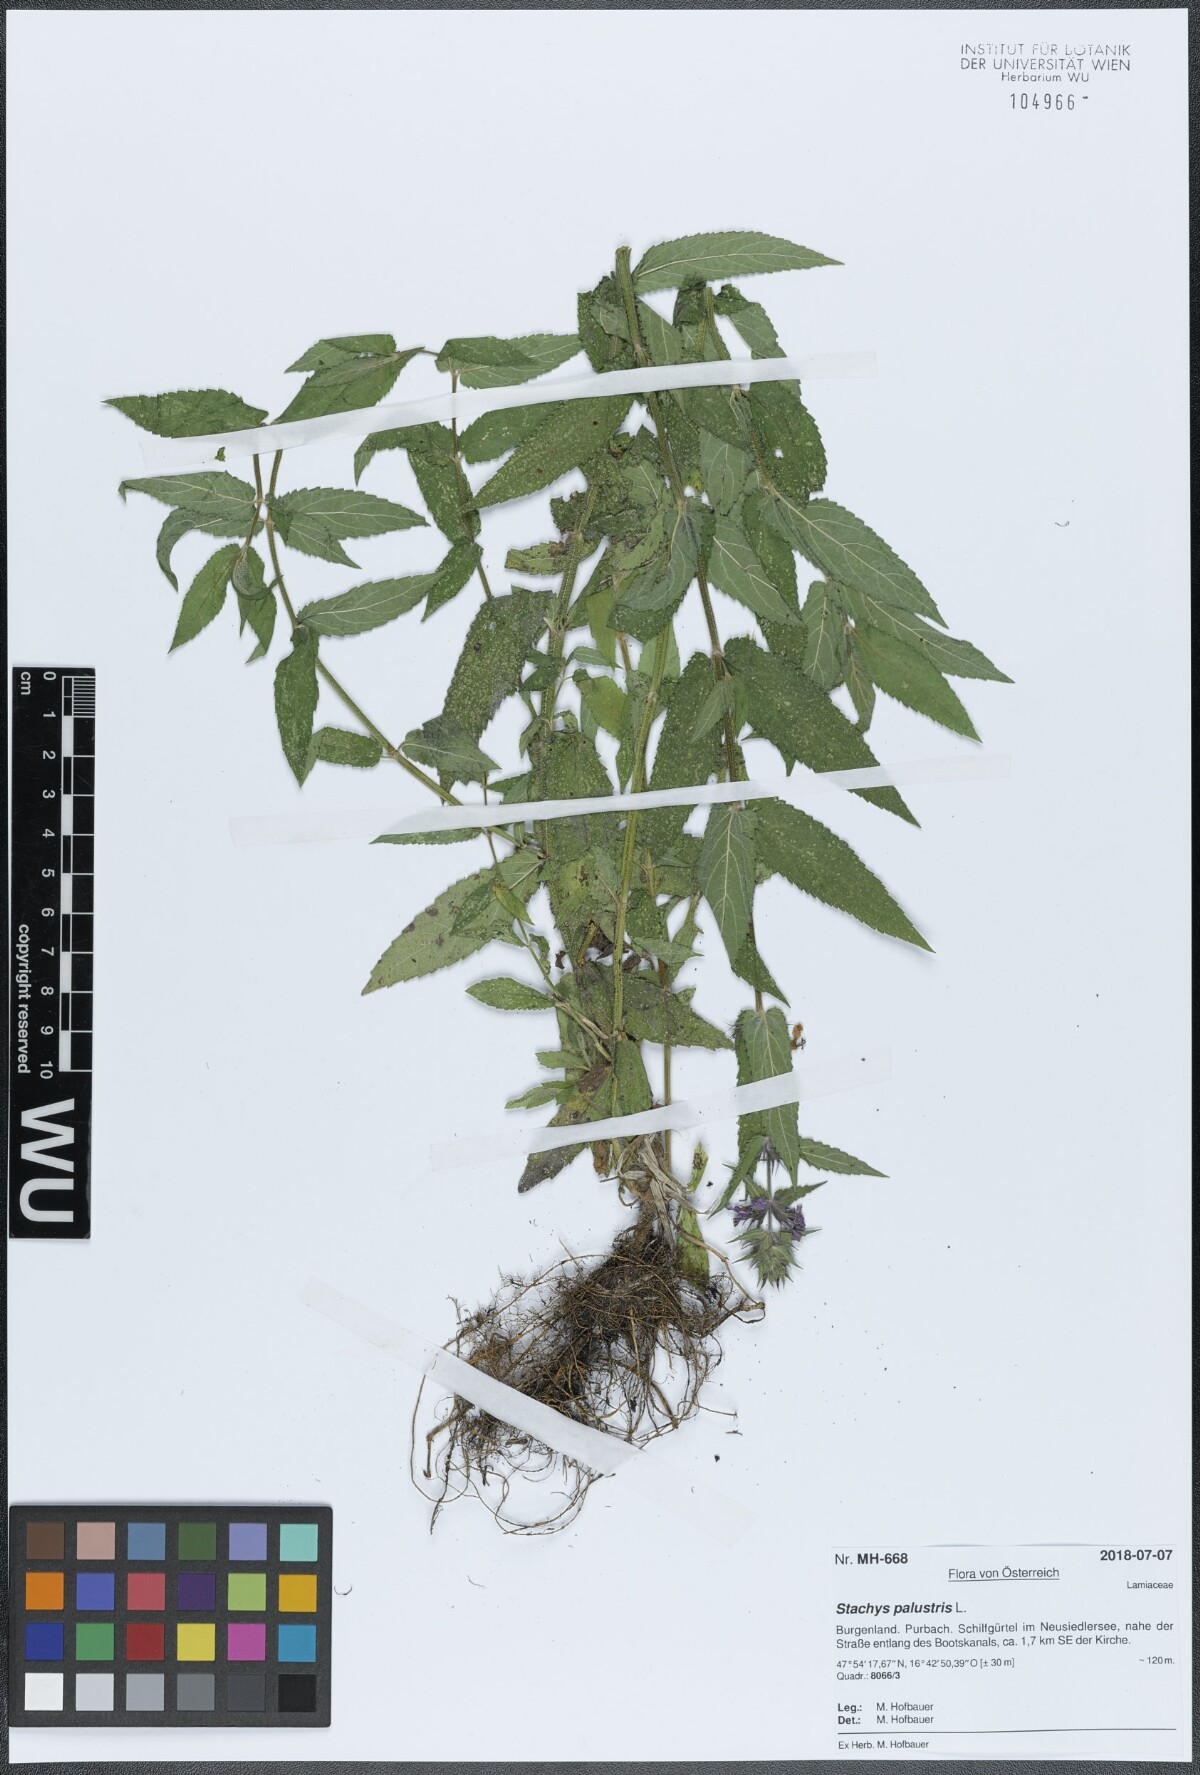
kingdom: Plantae
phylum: Tracheophyta
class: Magnoliopsida
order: Lamiales
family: Lamiaceae
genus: Stachys
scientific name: Stachys palustris
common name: Marsh woundwort
